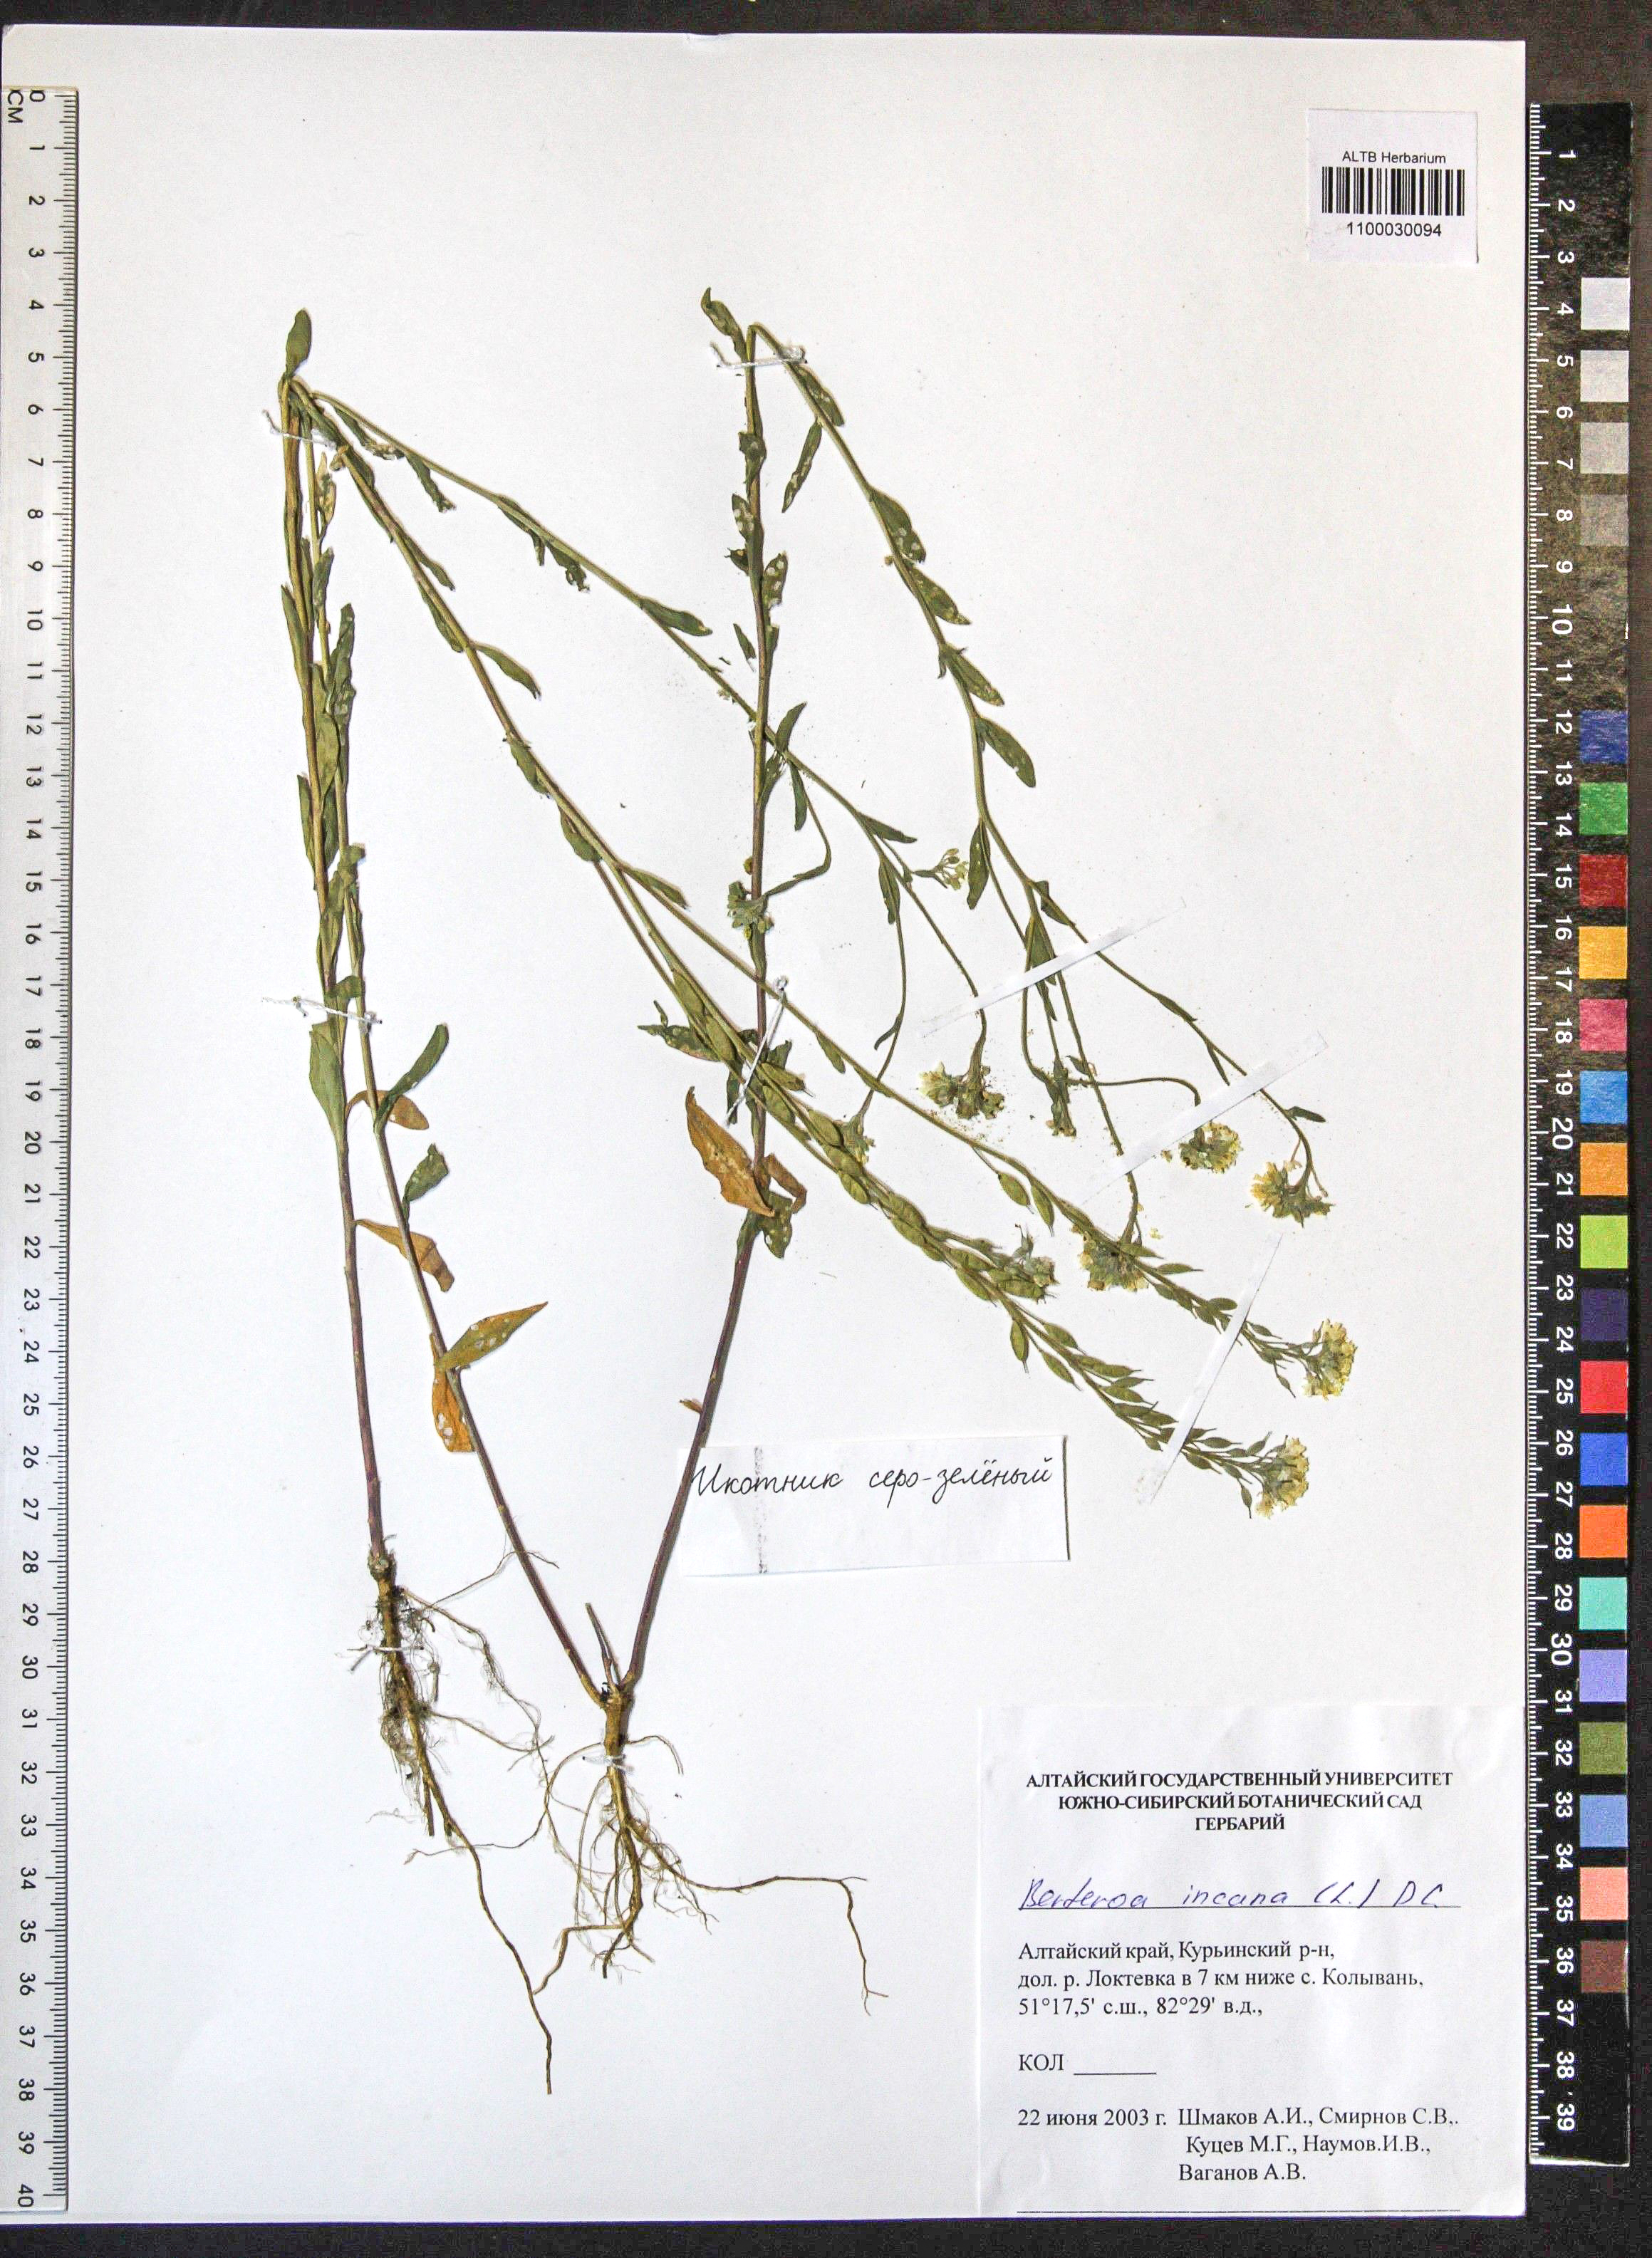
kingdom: Plantae
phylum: Tracheophyta
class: Magnoliopsida
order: Brassicales
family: Brassicaceae
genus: Berteroa
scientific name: Berteroa incana
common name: Hoary alison
